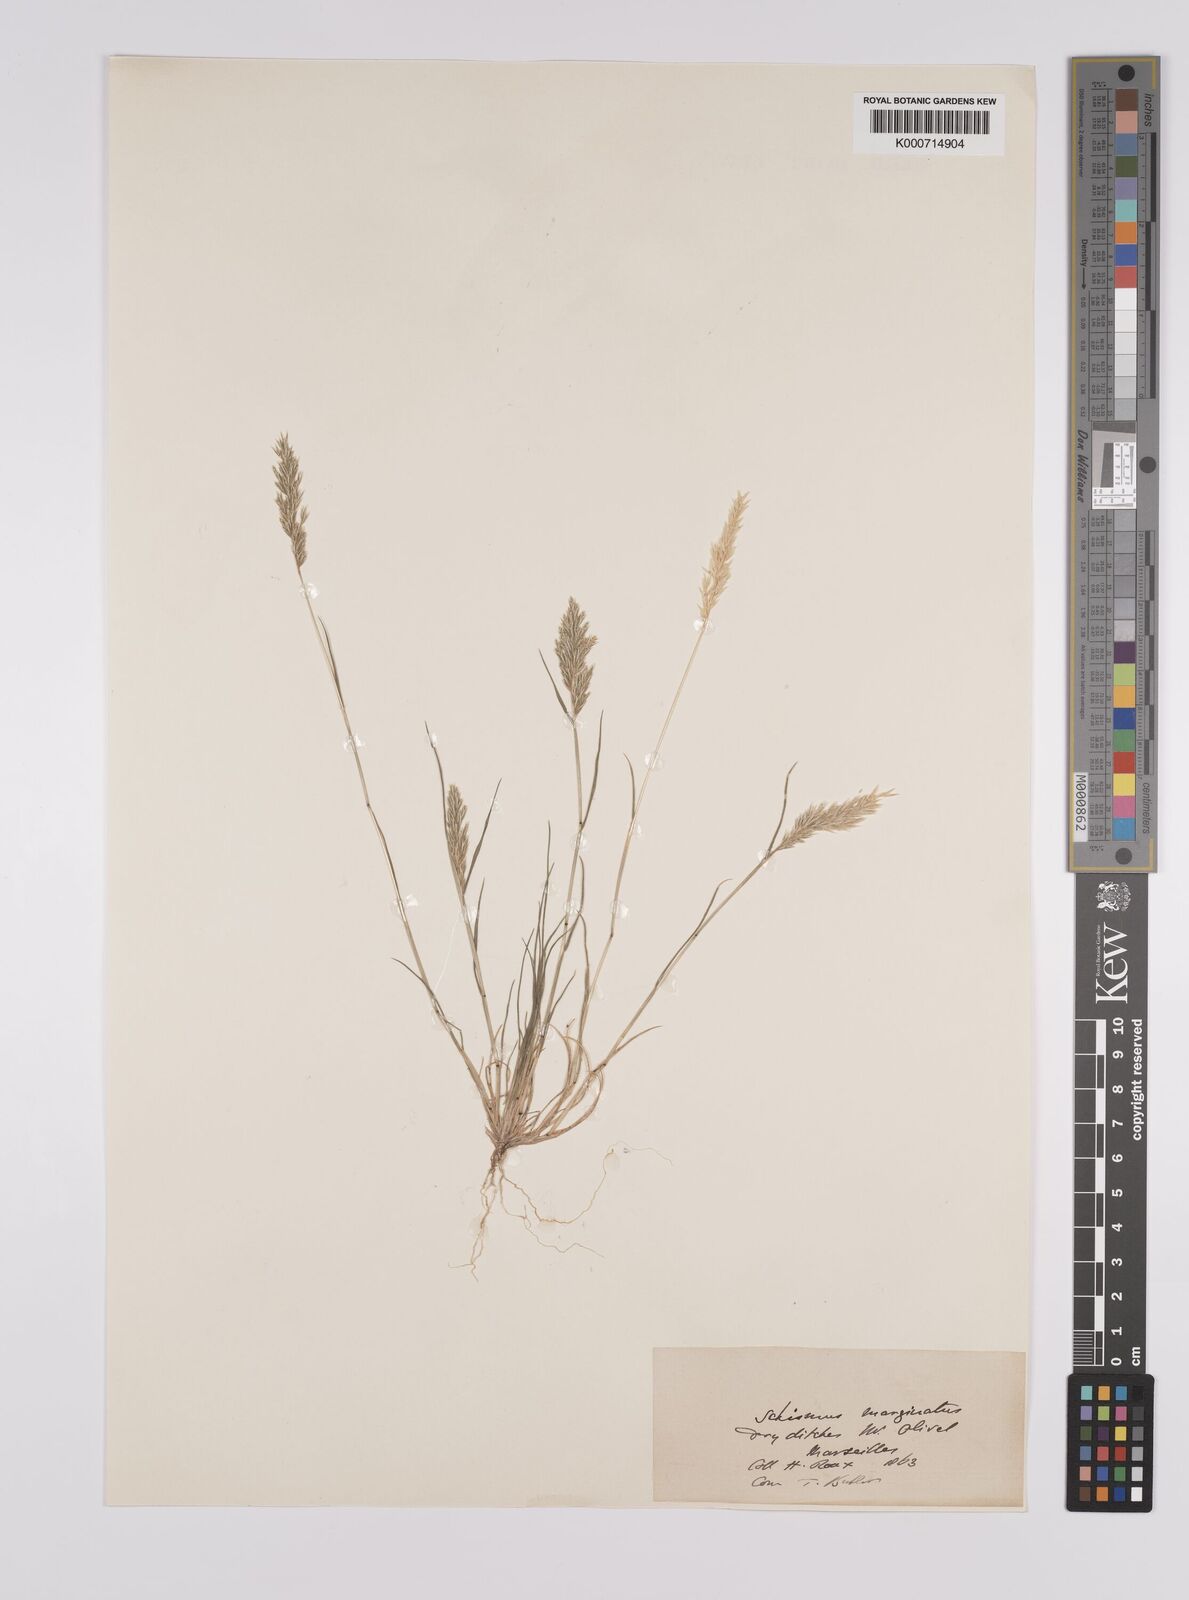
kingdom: Plantae
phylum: Tracheophyta
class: Liliopsida
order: Poales
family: Poaceae
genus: Schismus
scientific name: Schismus barbatus
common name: Kelch-grass
